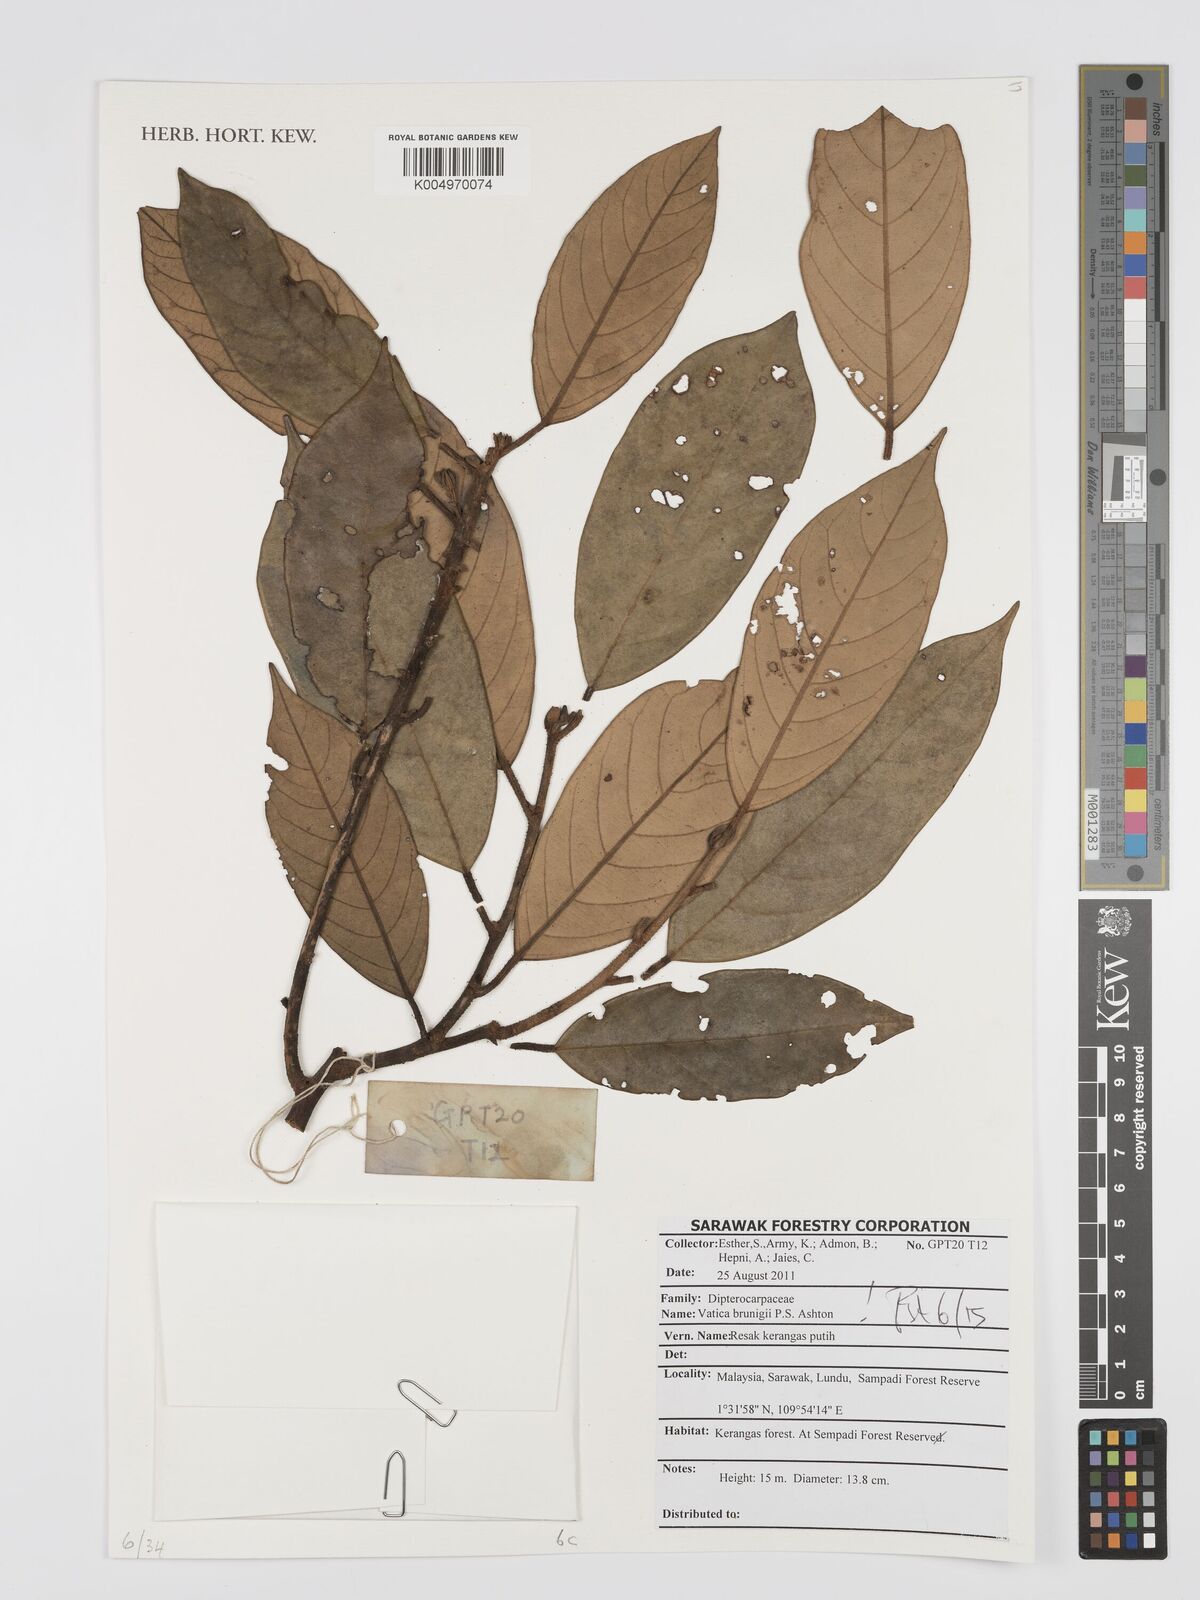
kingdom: Plantae
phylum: Tracheophyta
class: Magnoliopsida
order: Malvales
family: Dipterocarpaceae
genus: Vatica
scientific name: Vatica brunigii
